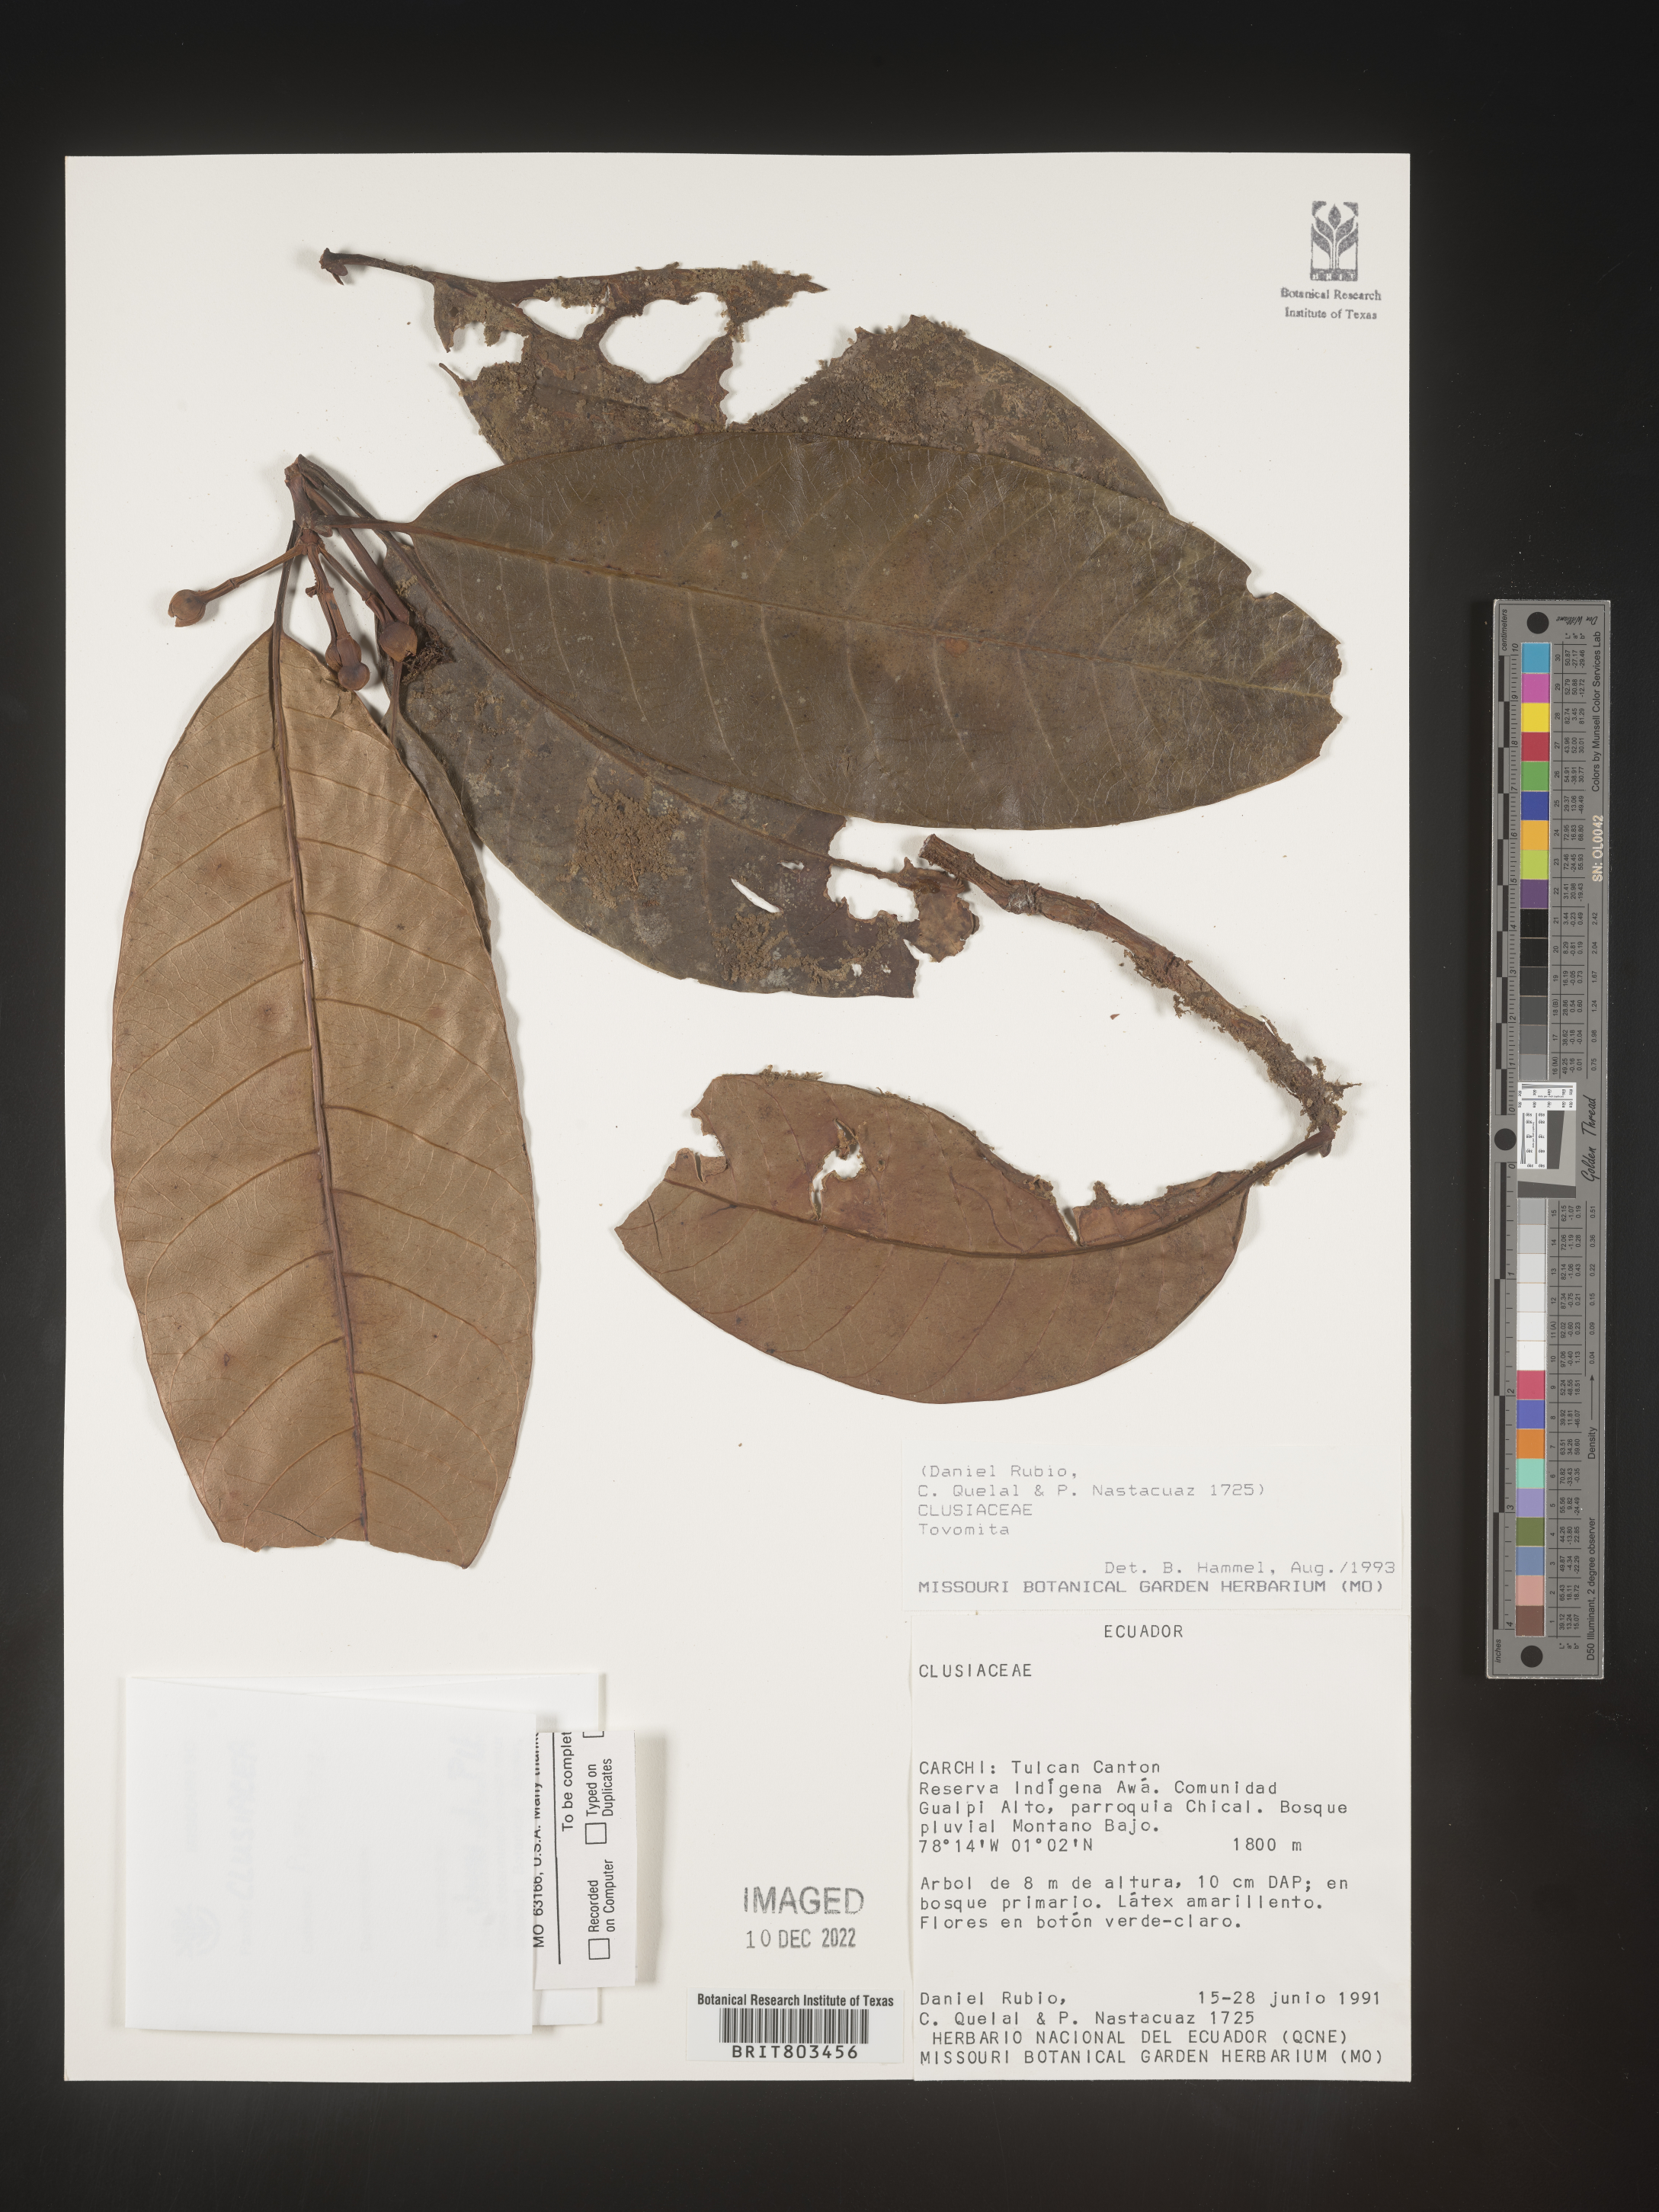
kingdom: Plantae
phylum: Tracheophyta
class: Magnoliopsida
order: Malpighiales
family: Clusiaceae
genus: Tovomita
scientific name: Tovomita
